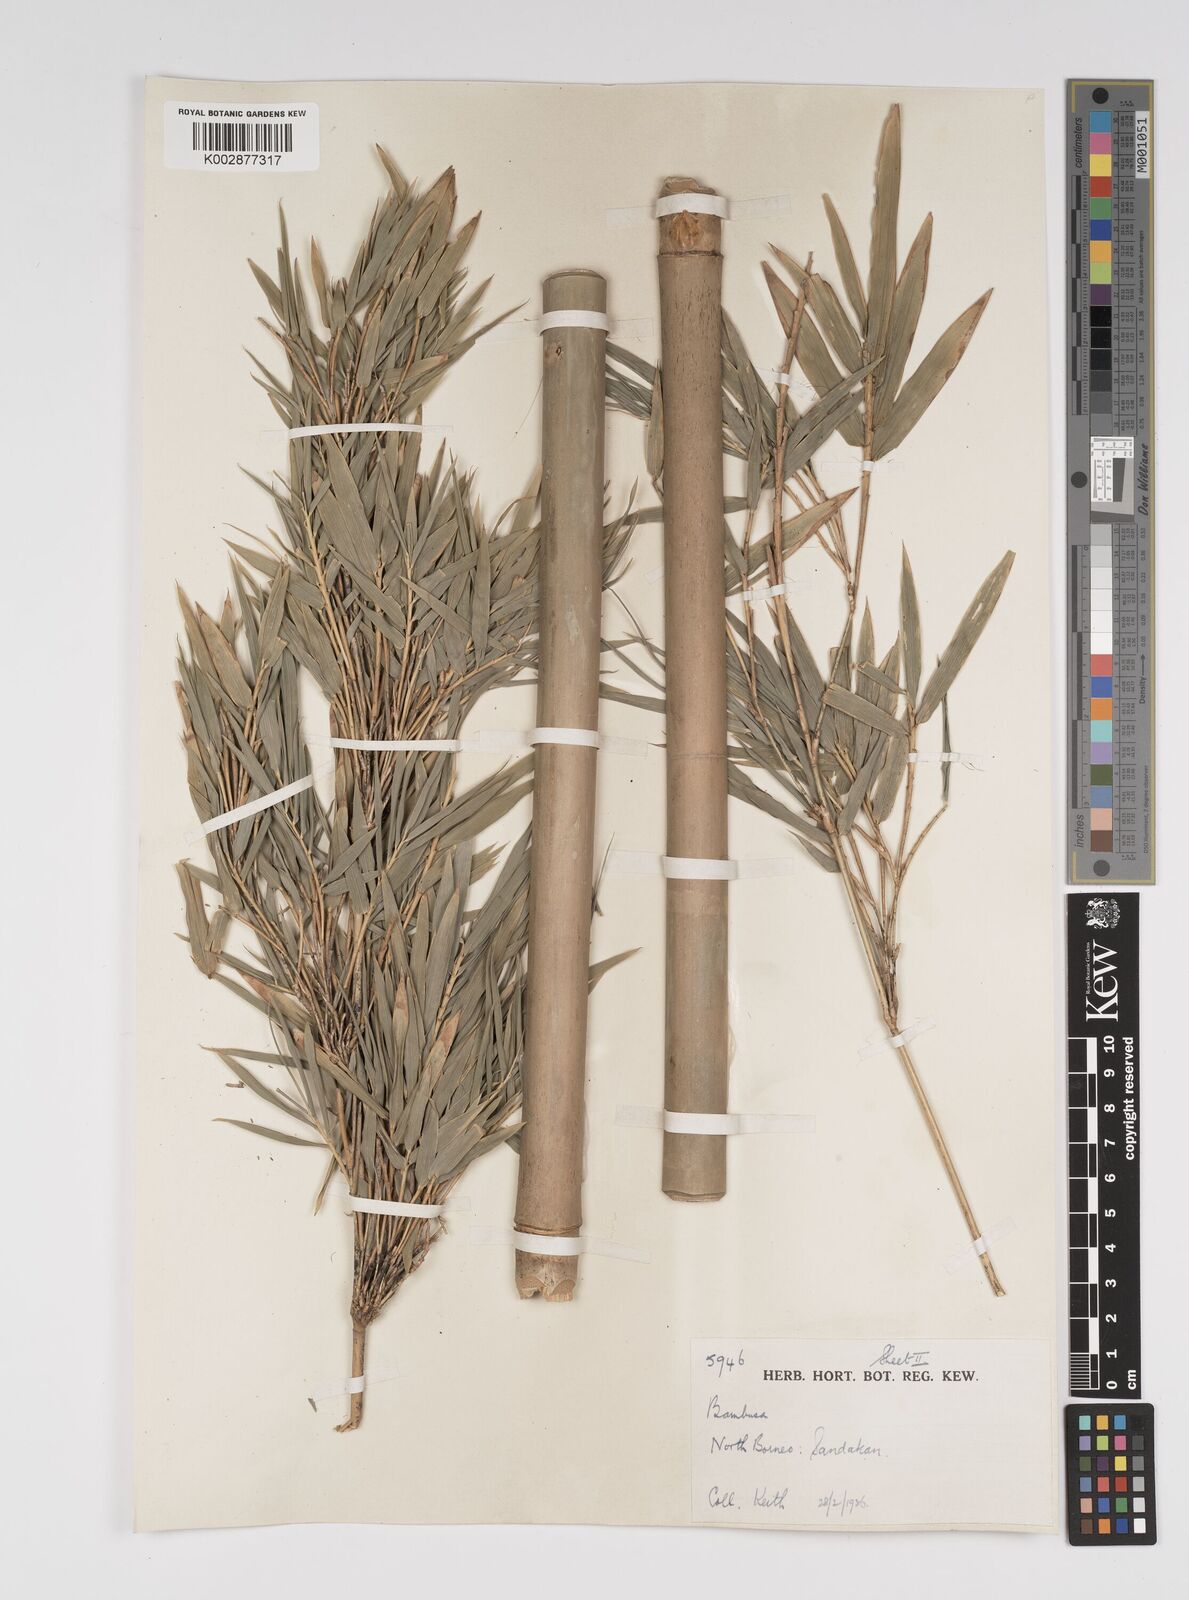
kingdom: Plantae
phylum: Tracheophyta
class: Liliopsida
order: Poales
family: Poaceae
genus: Bambusa
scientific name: Bambusa multiplex
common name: Hedge bamboo
